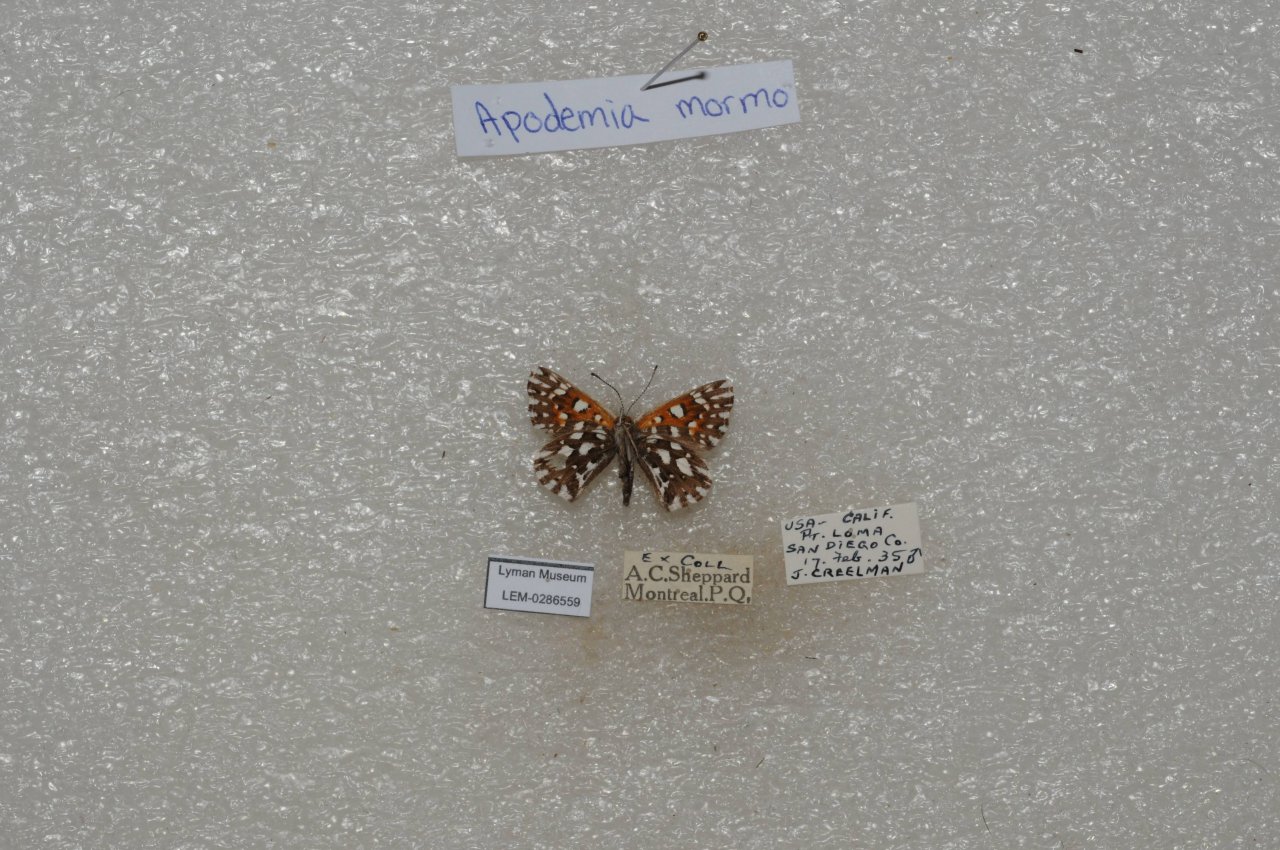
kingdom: Animalia
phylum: Arthropoda
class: Insecta
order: Lepidoptera
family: Riodinidae
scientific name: Riodinidae
